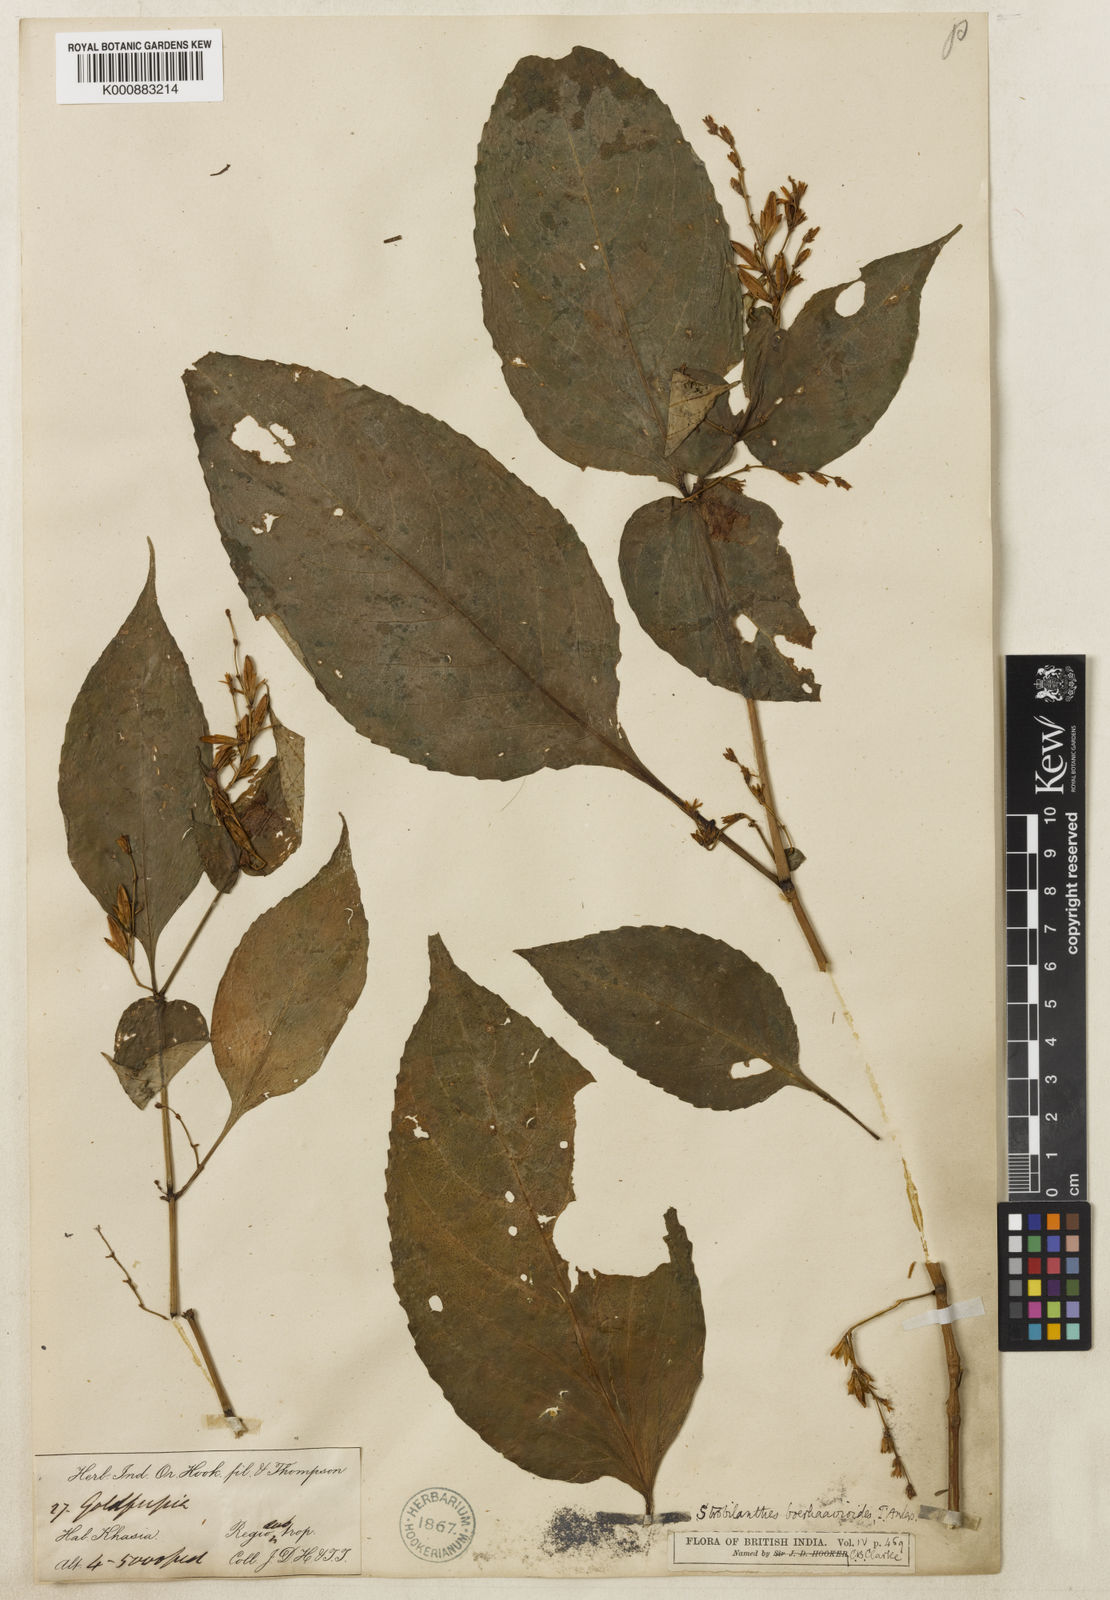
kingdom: Plantae
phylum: Tracheophyta
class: Magnoliopsida
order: Lamiales
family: Acanthaceae
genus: Strobilanthes
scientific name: Strobilanthes
